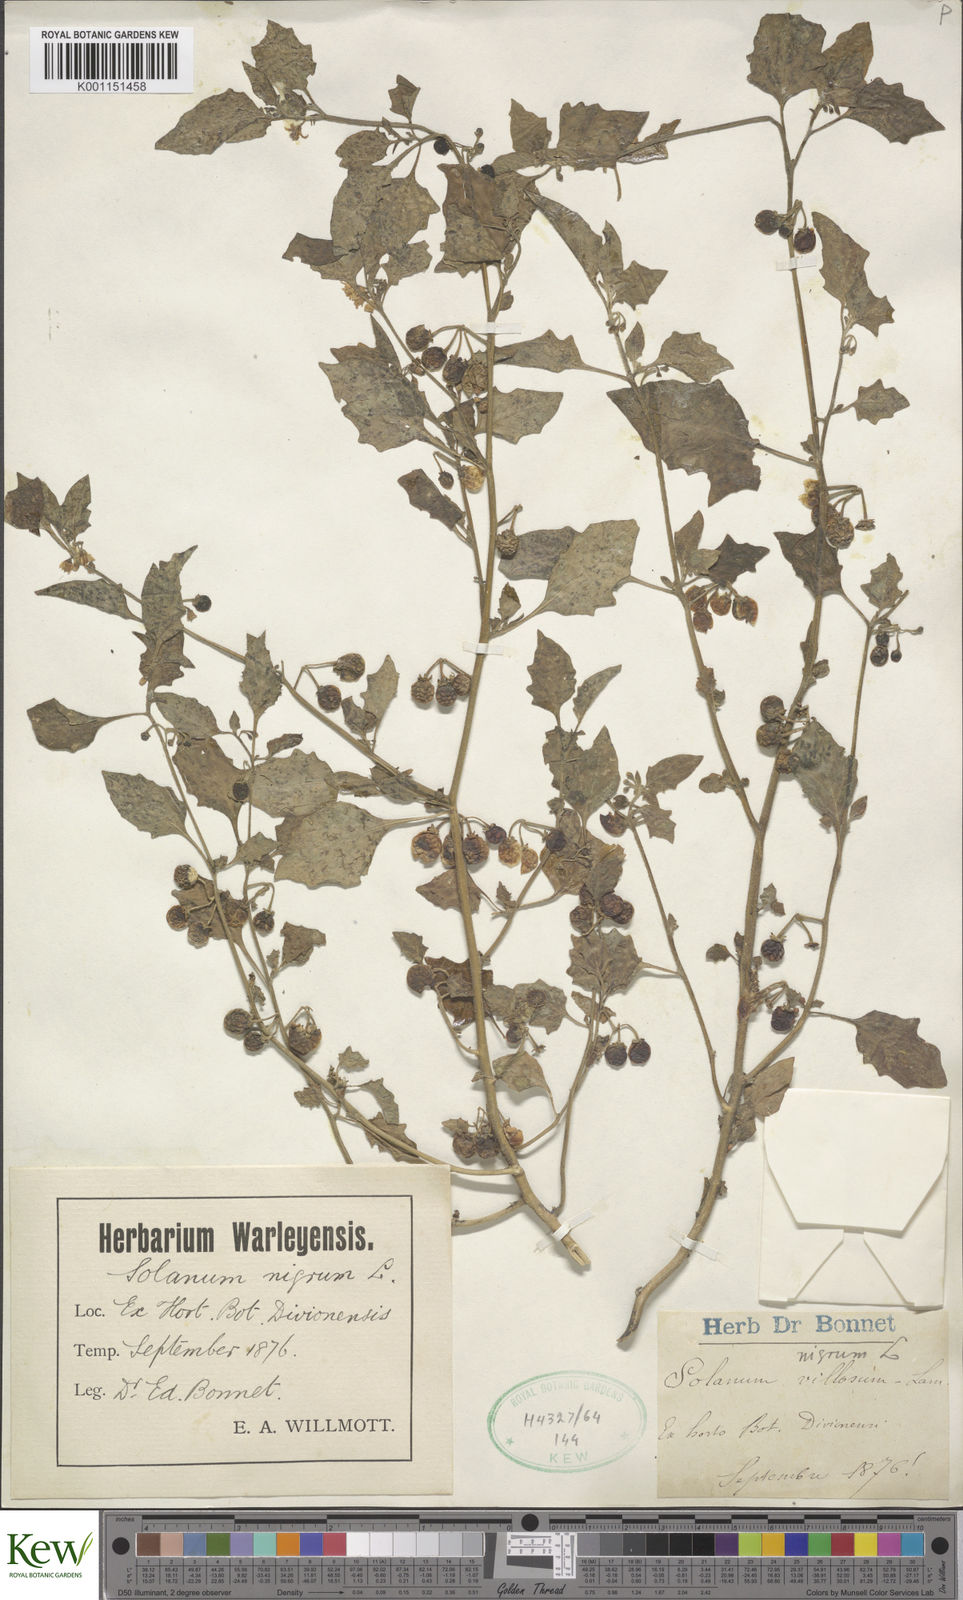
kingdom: Plantae
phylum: Tracheophyta
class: Magnoliopsida
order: Solanales
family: Solanaceae
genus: Solanum
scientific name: Solanum villosum
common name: Red nightshade
